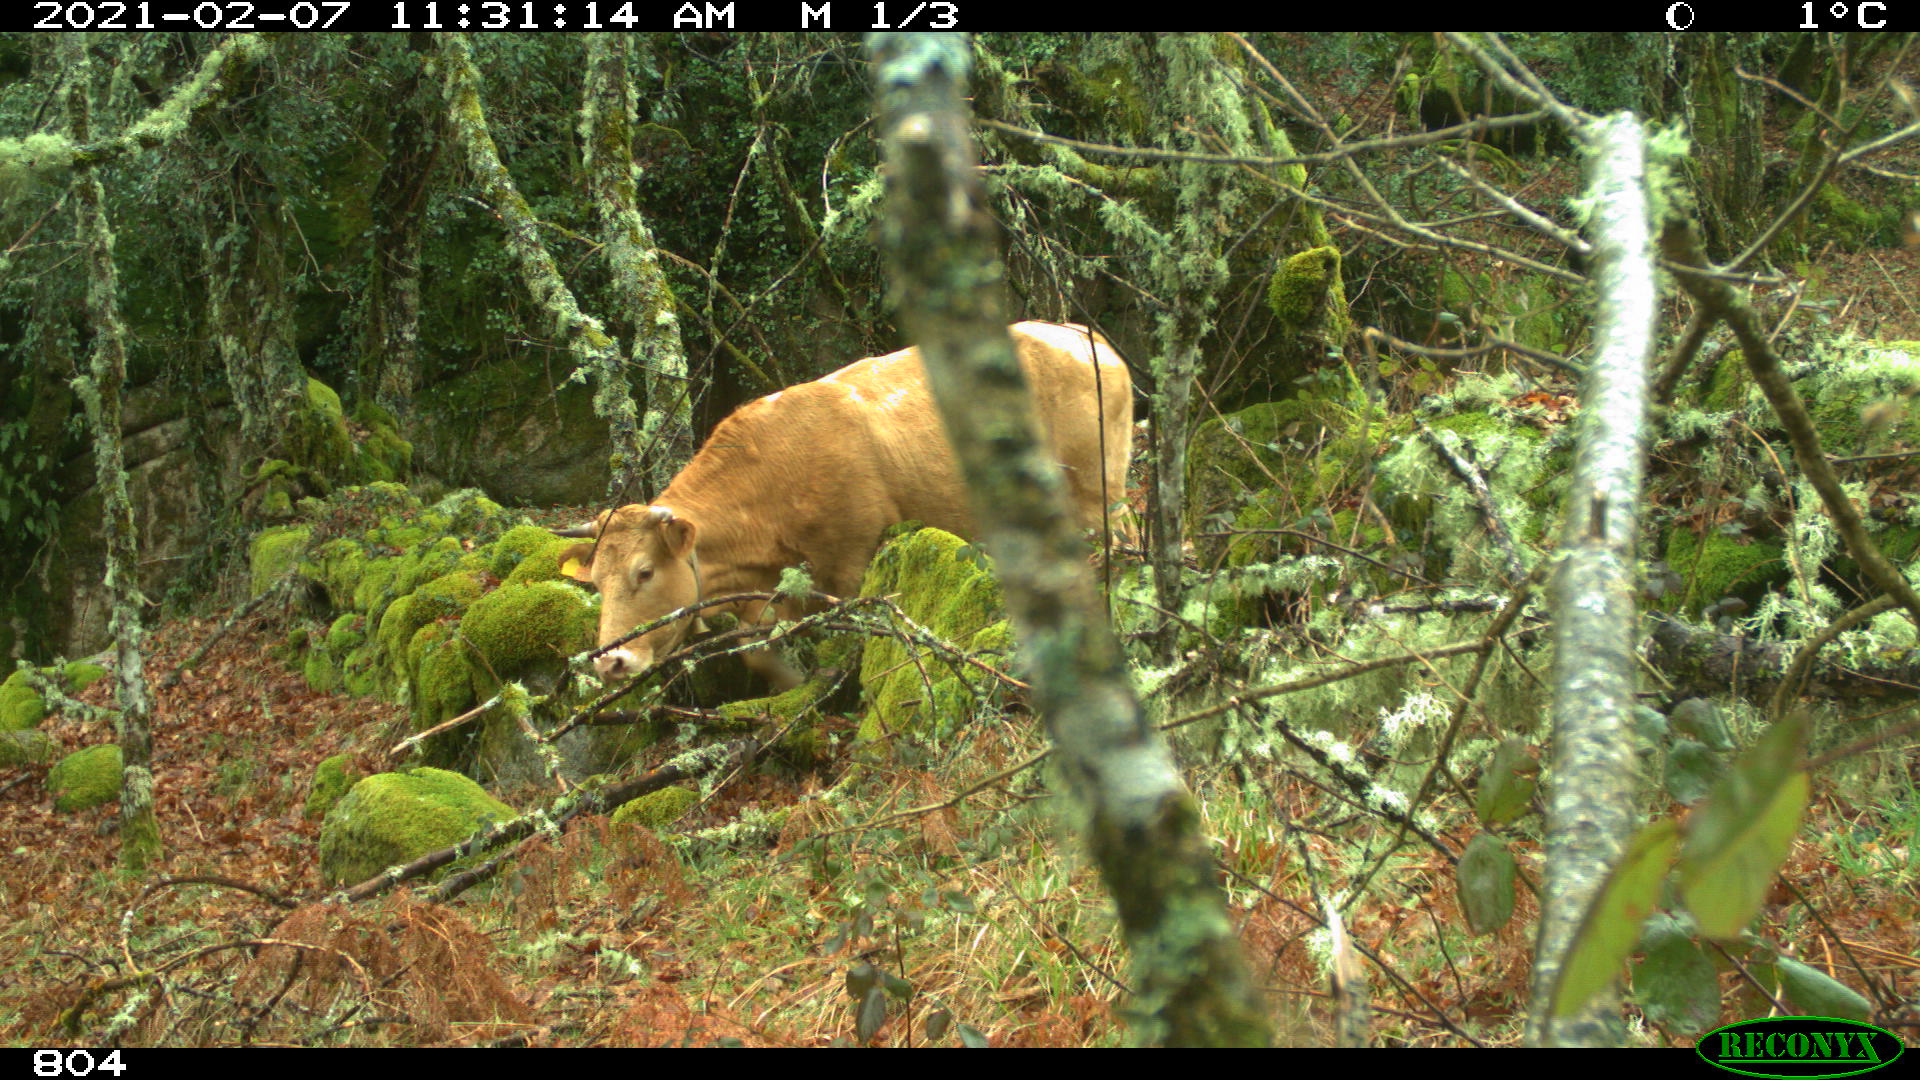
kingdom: Animalia
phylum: Chordata
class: Mammalia
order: Artiodactyla
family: Bovidae
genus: Bos
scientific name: Bos taurus
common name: Domesticated cattle
